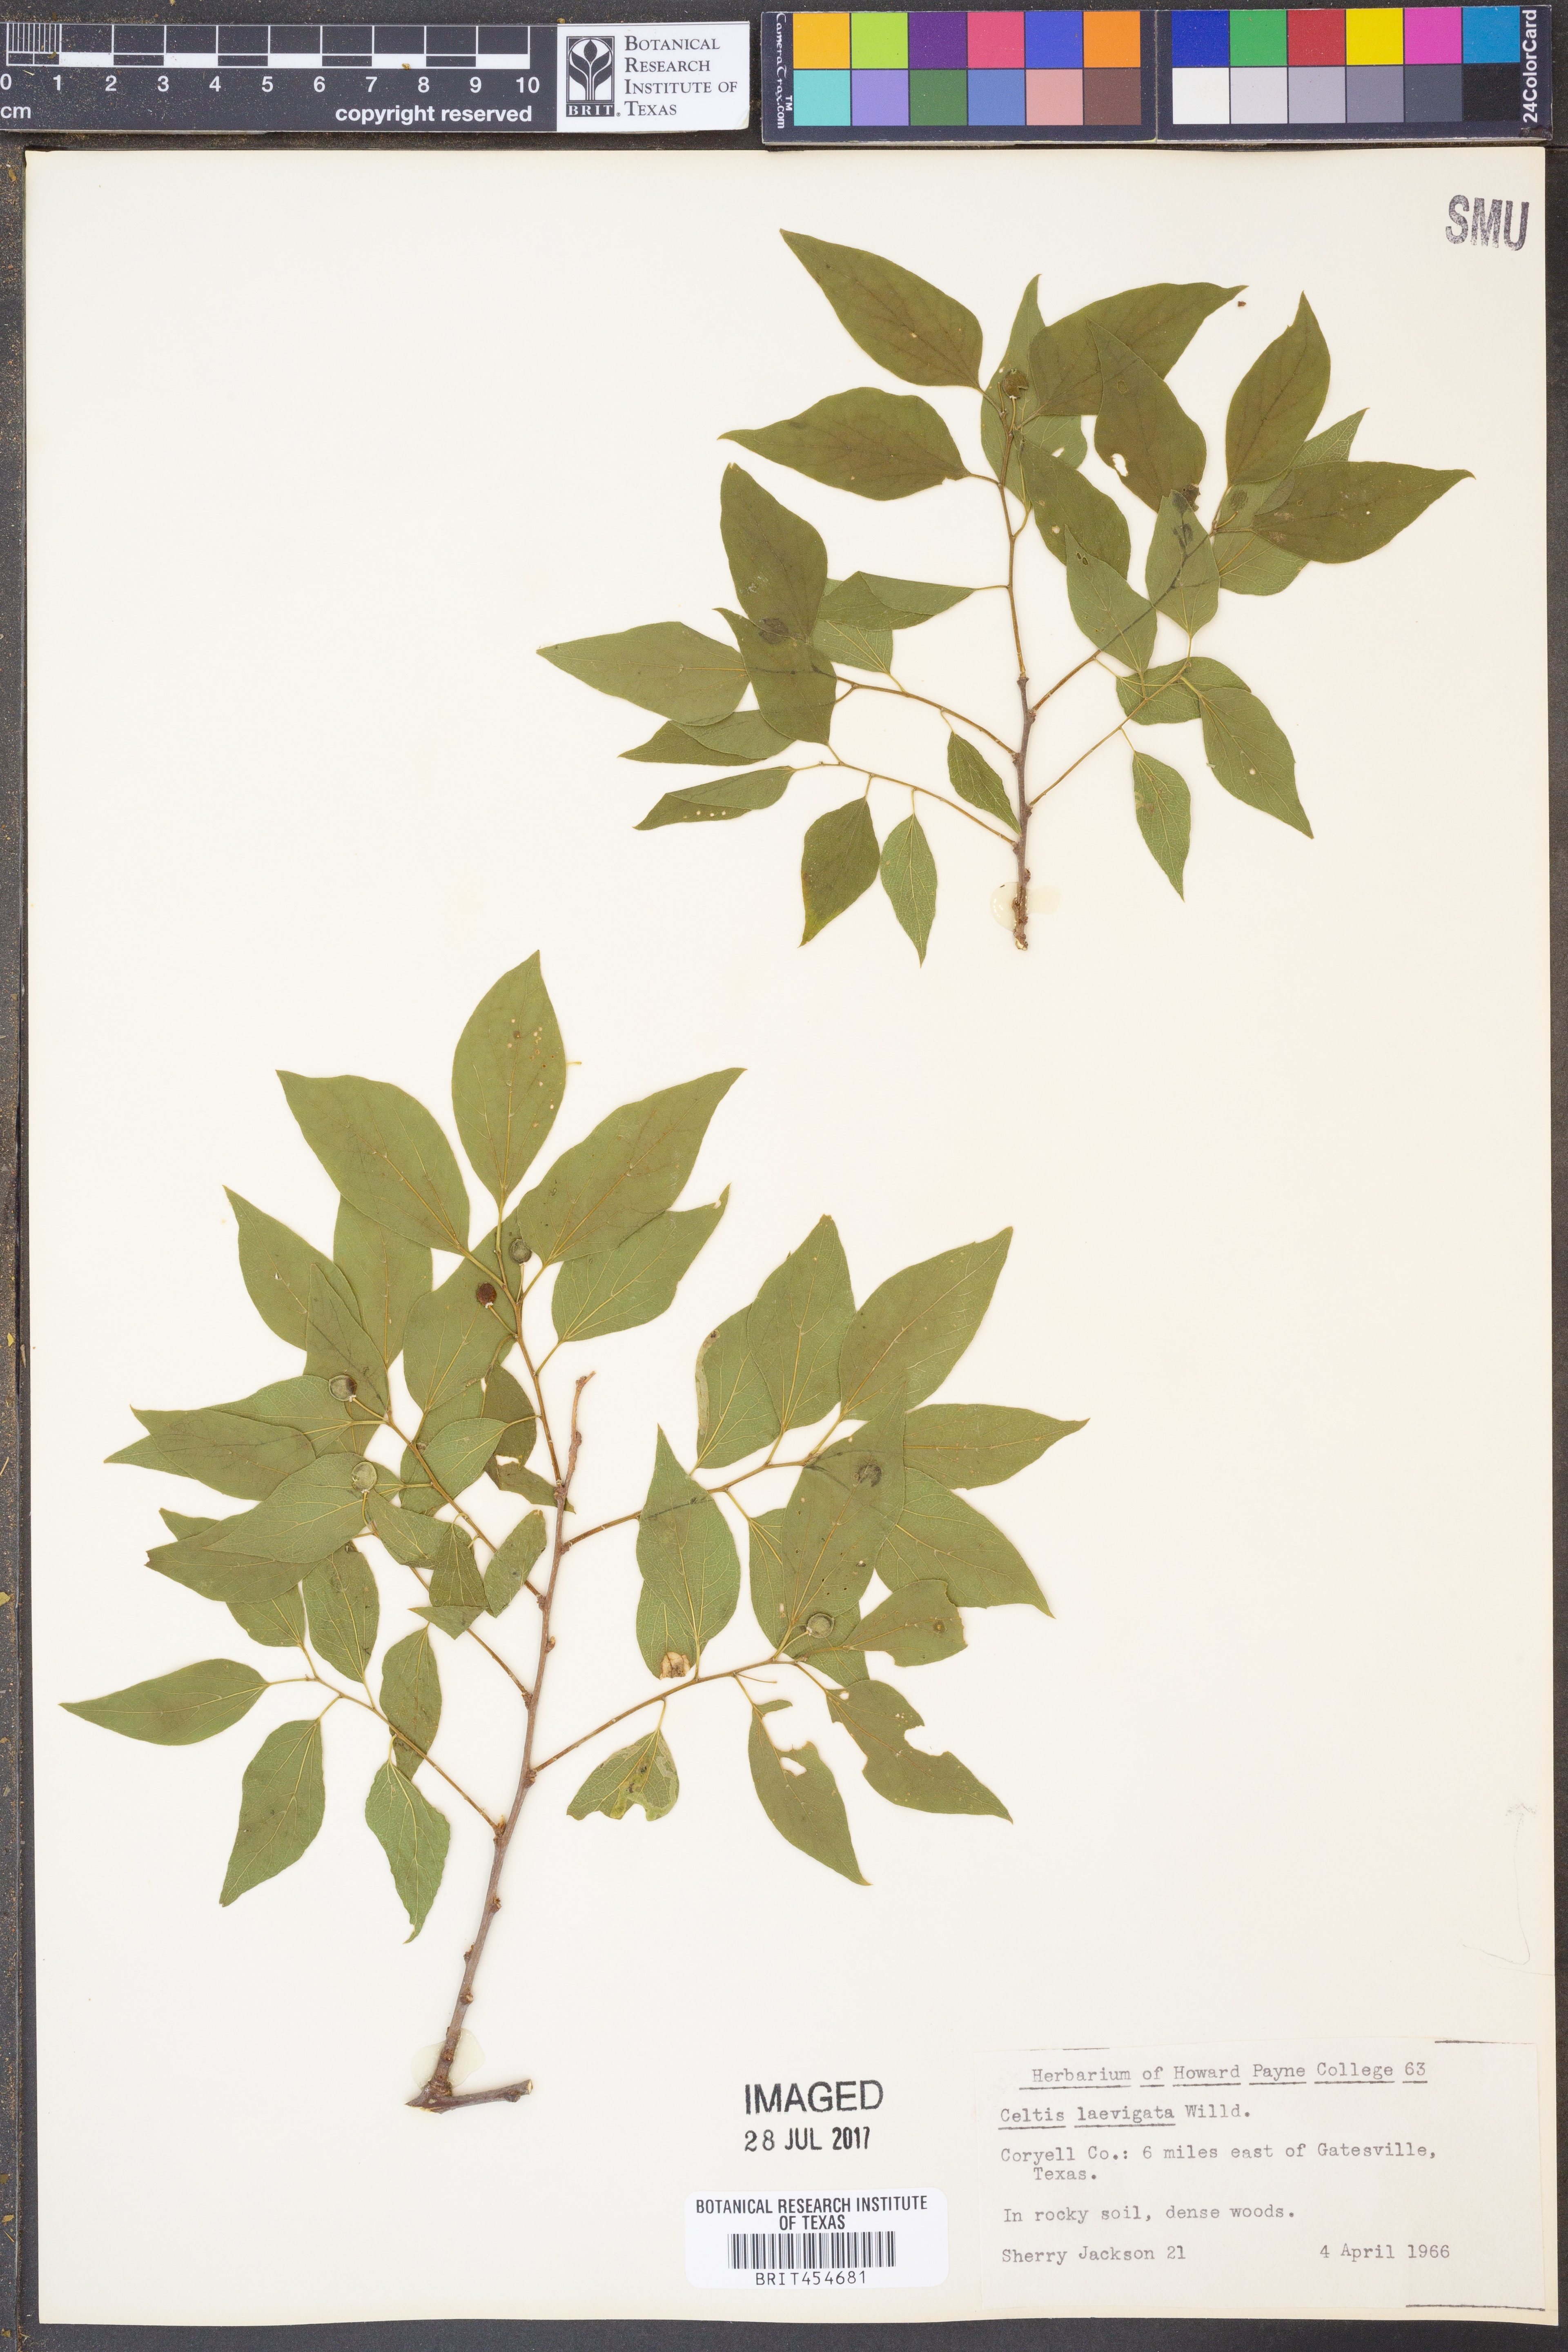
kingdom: Plantae
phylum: Tracheophyta
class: Magnoliopsida
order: Rosales
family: Cannabaceae
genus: Celtis
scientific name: Celtis laevigata
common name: Sugarberry
